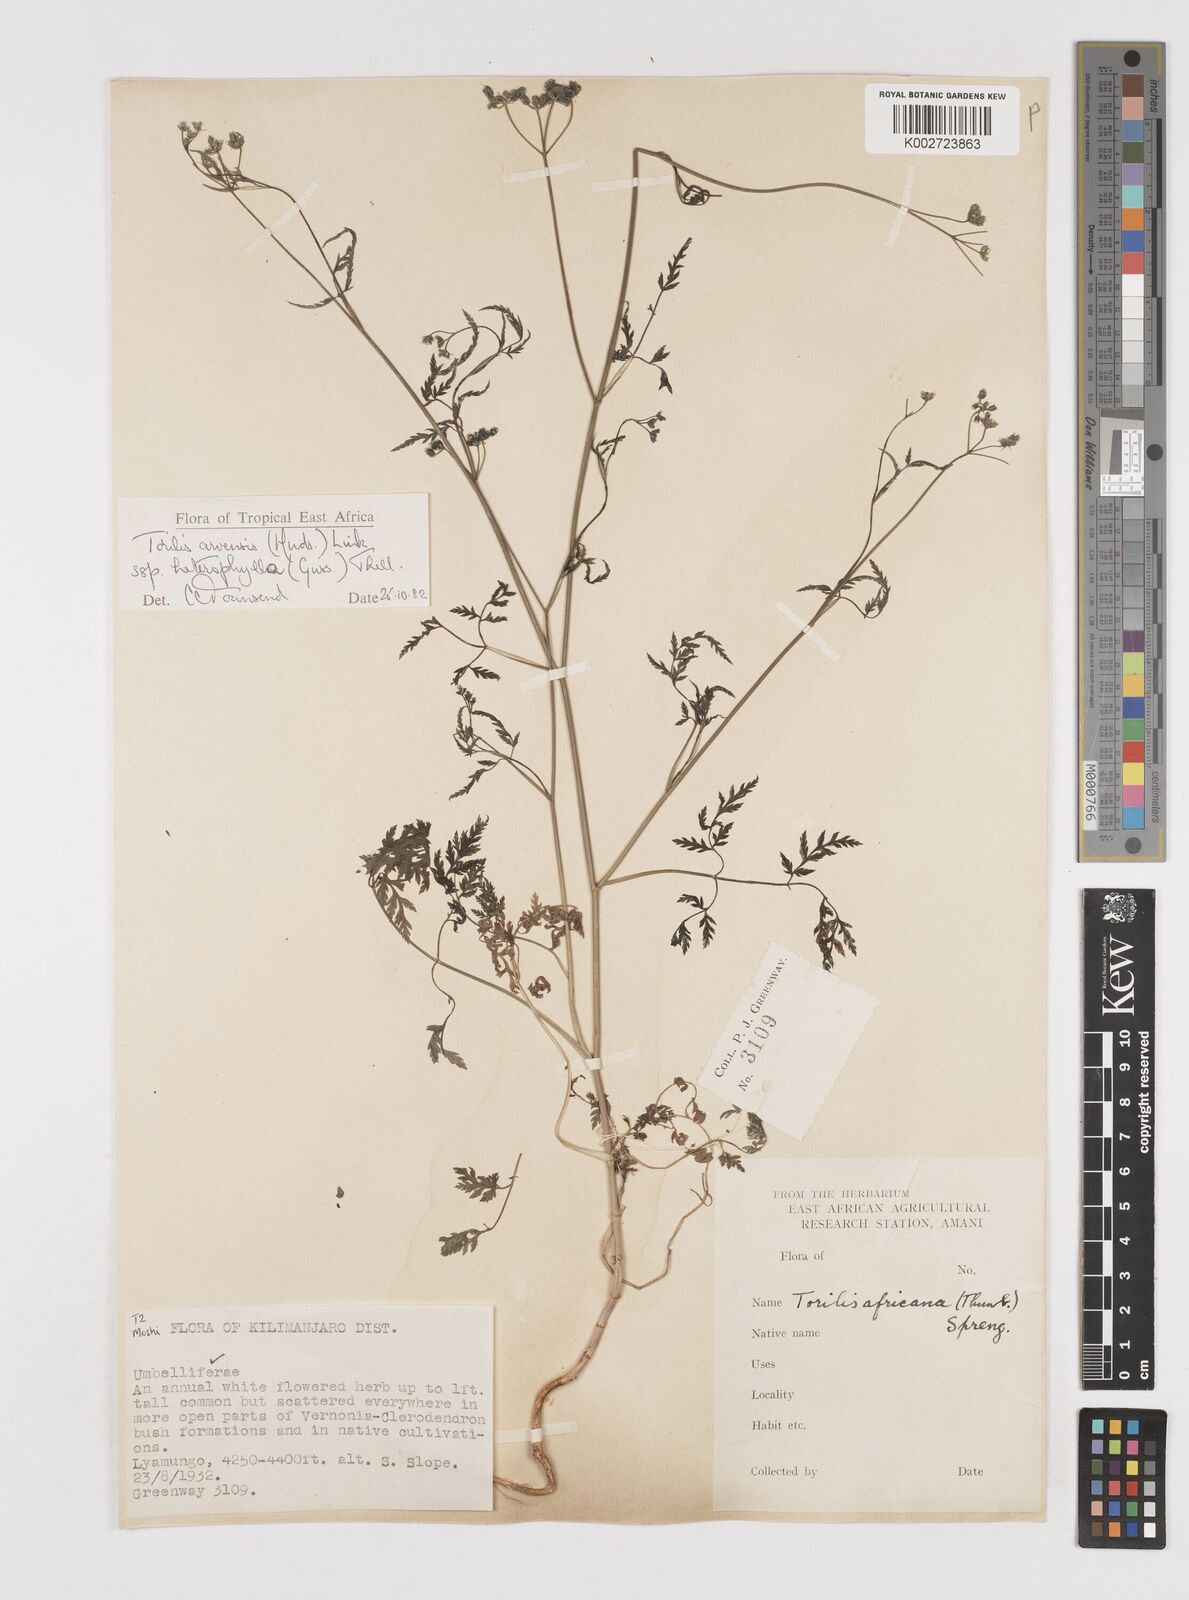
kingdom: Plantae
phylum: Tracheophyta
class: Magnoliopsida
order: Apiales
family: Apiaceae
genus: Torilis
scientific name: Torilis arvensis
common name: Spreading hedge-parsley
